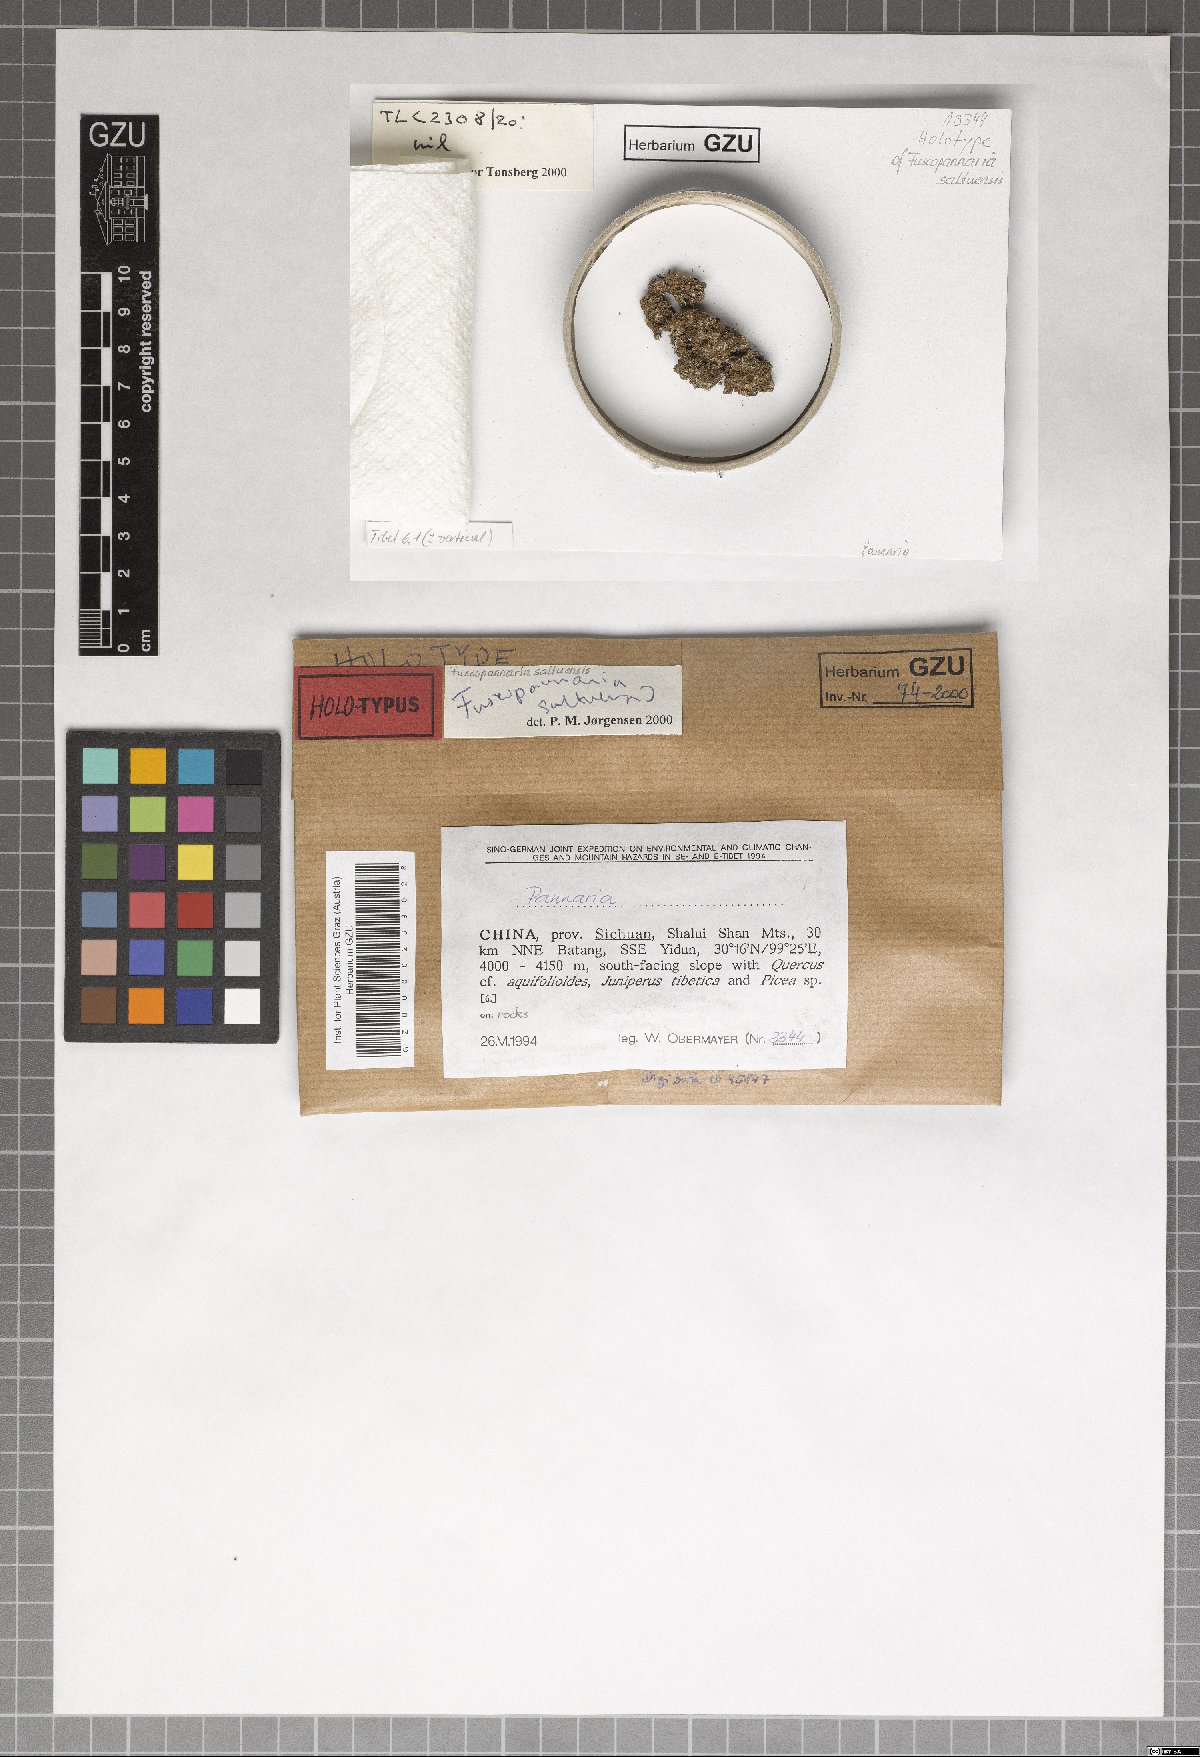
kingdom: Fungi
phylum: Ascomycota
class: Lecanoromycetes
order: Peltigerales
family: Pannariaceae
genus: Fuscopannaria
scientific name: Fuscopannaria saltuensis
